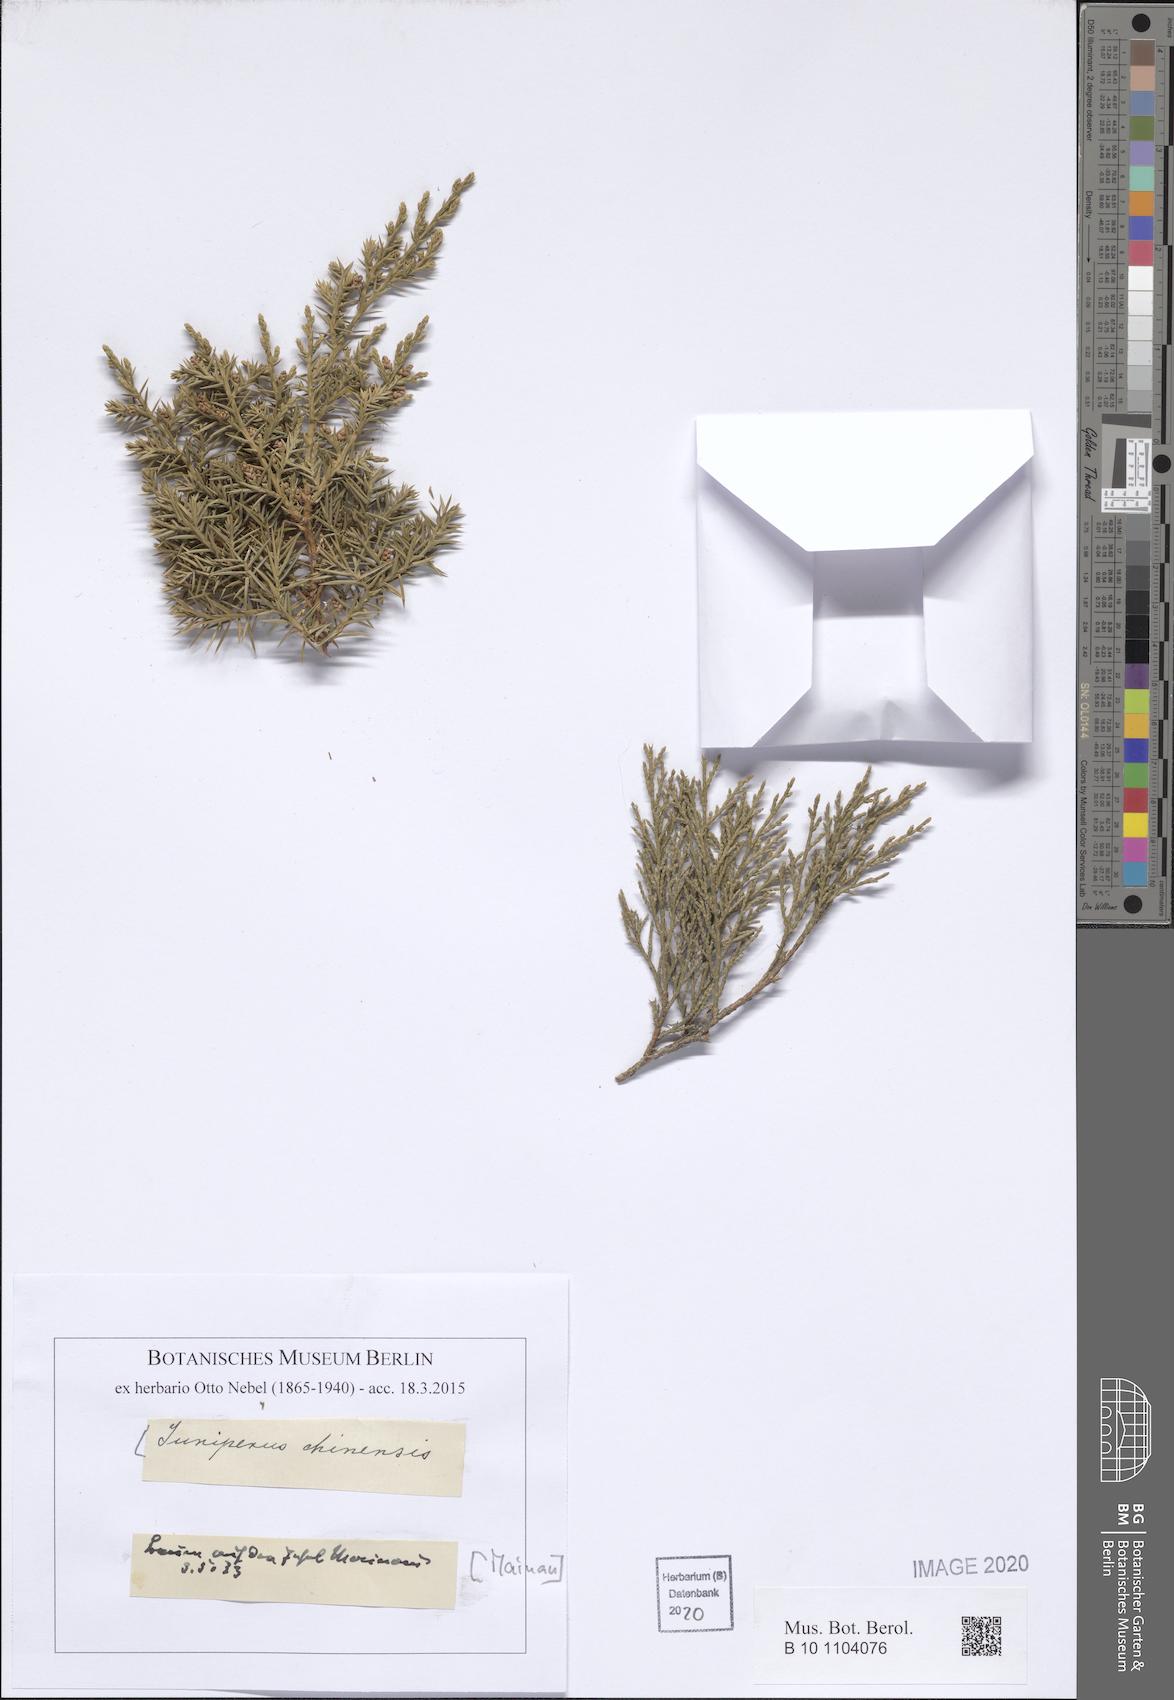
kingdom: Plantae
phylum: Tracheophyta
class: Pinopsida
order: Pinales
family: Cupressaceae
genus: Juniperus
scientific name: Juniperus chinensis
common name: Chinese juniper
